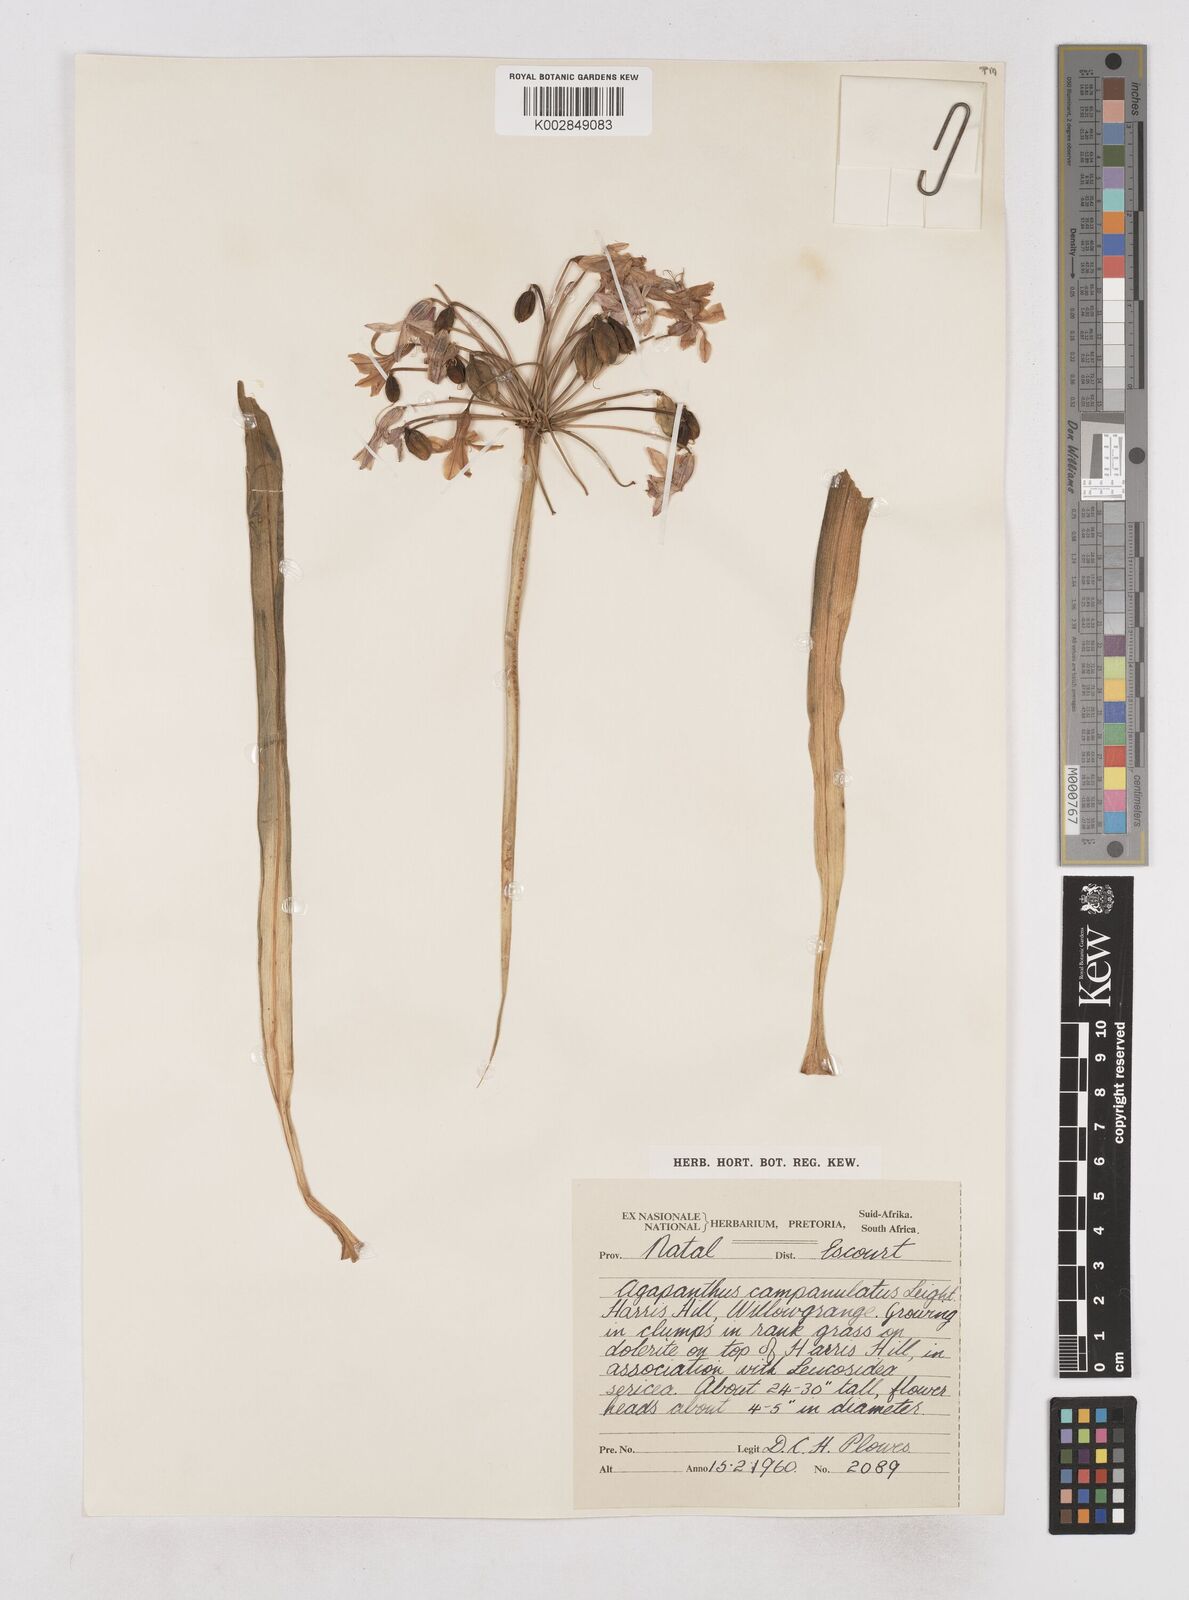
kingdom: Plantae
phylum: Tracheophyta
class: Liliopsida
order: Asparagales
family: Amaryllidaceae
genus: Agapanthus
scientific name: Agapanthus campanulatus
